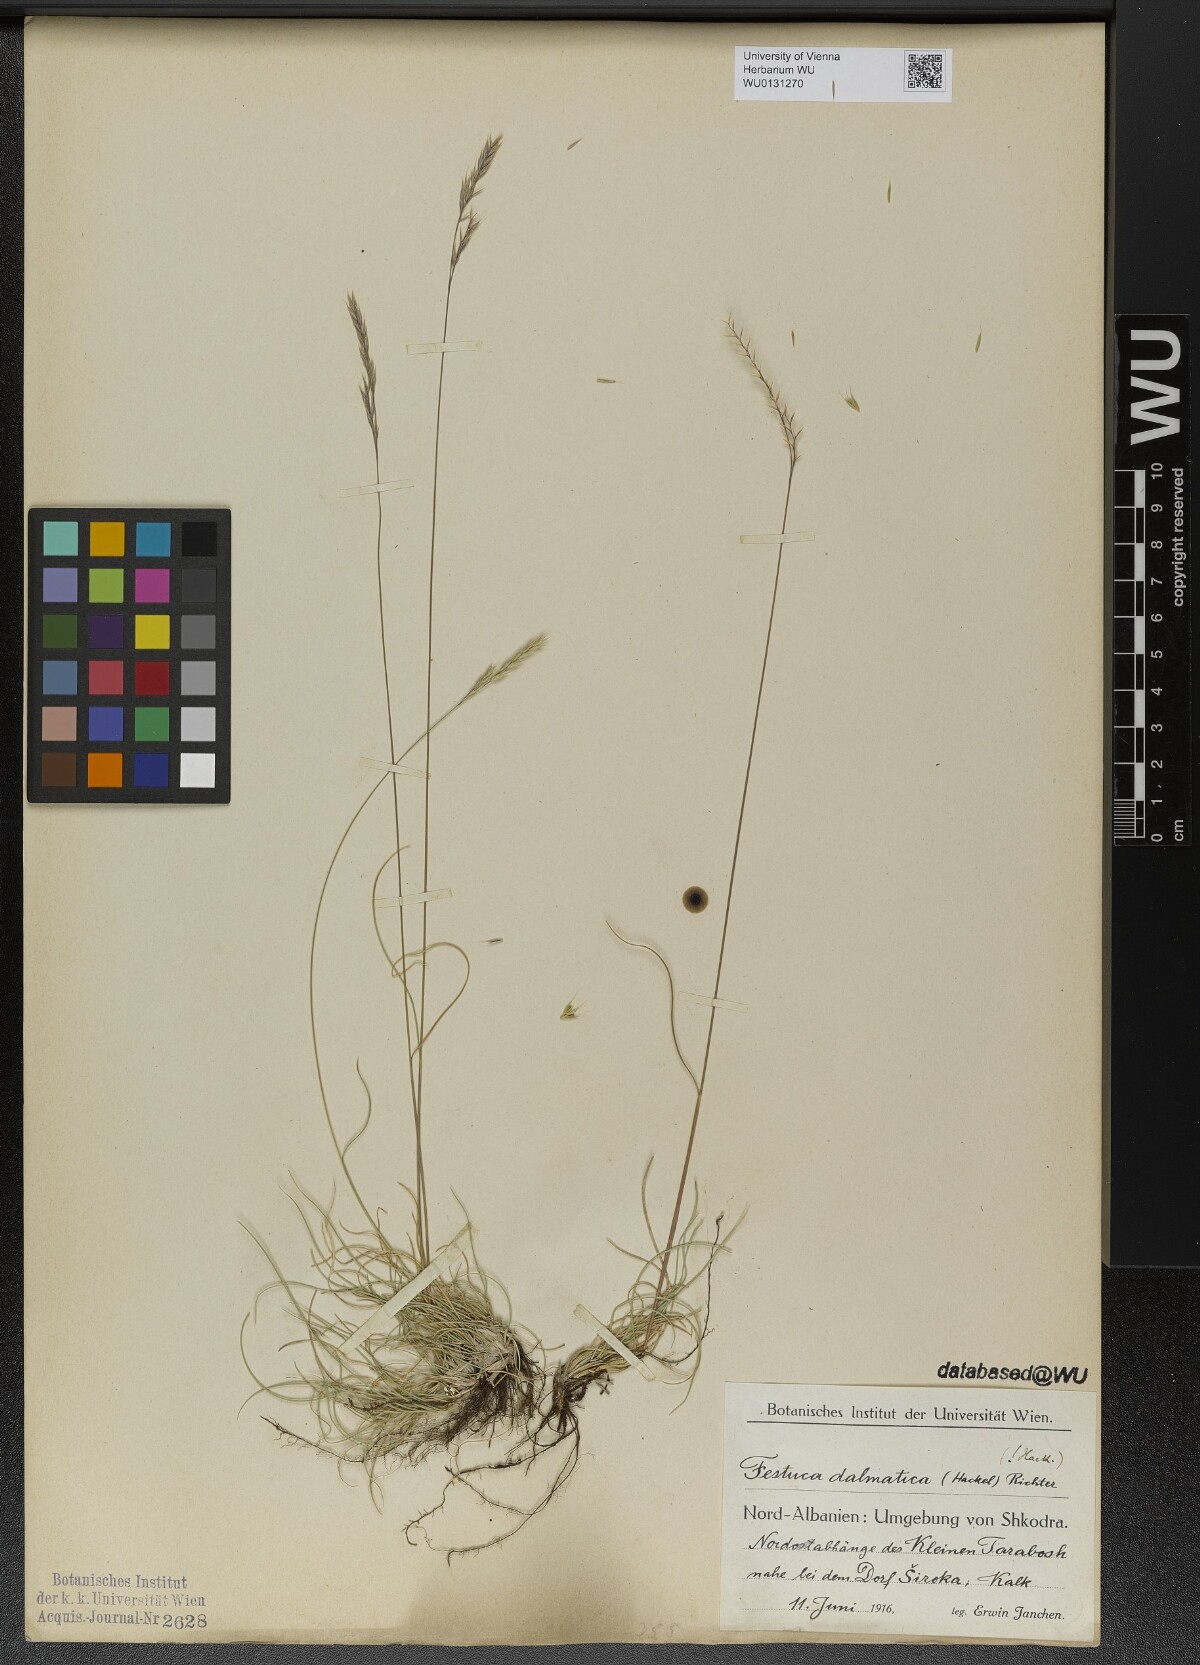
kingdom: Plantae
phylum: Tracheophyta
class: Liliopsida
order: Poales
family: Poaceae
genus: Festuca
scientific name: Festuca dalmatica
